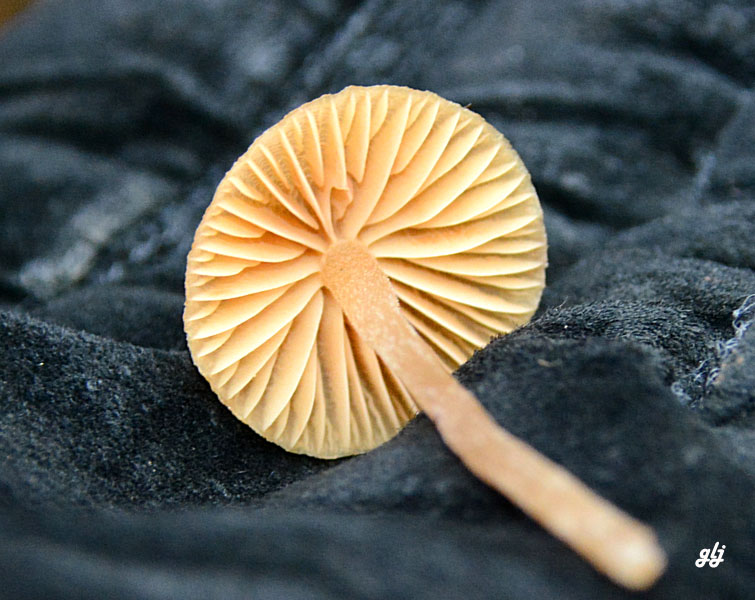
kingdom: Fungi
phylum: Basidiomycota
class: Agaricomycetes
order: Agaricales
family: Hymenogastraceae
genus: Galerina
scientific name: Galerina
